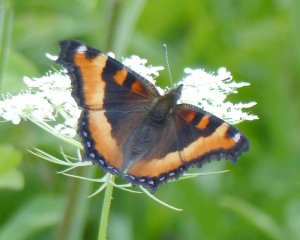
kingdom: Animalia
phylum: Arthropoda
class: Insecta
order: Lepidoptera
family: Nymphalidae
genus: Aglais
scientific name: Aglais milberti
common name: Milbert's Tortoiseshell
